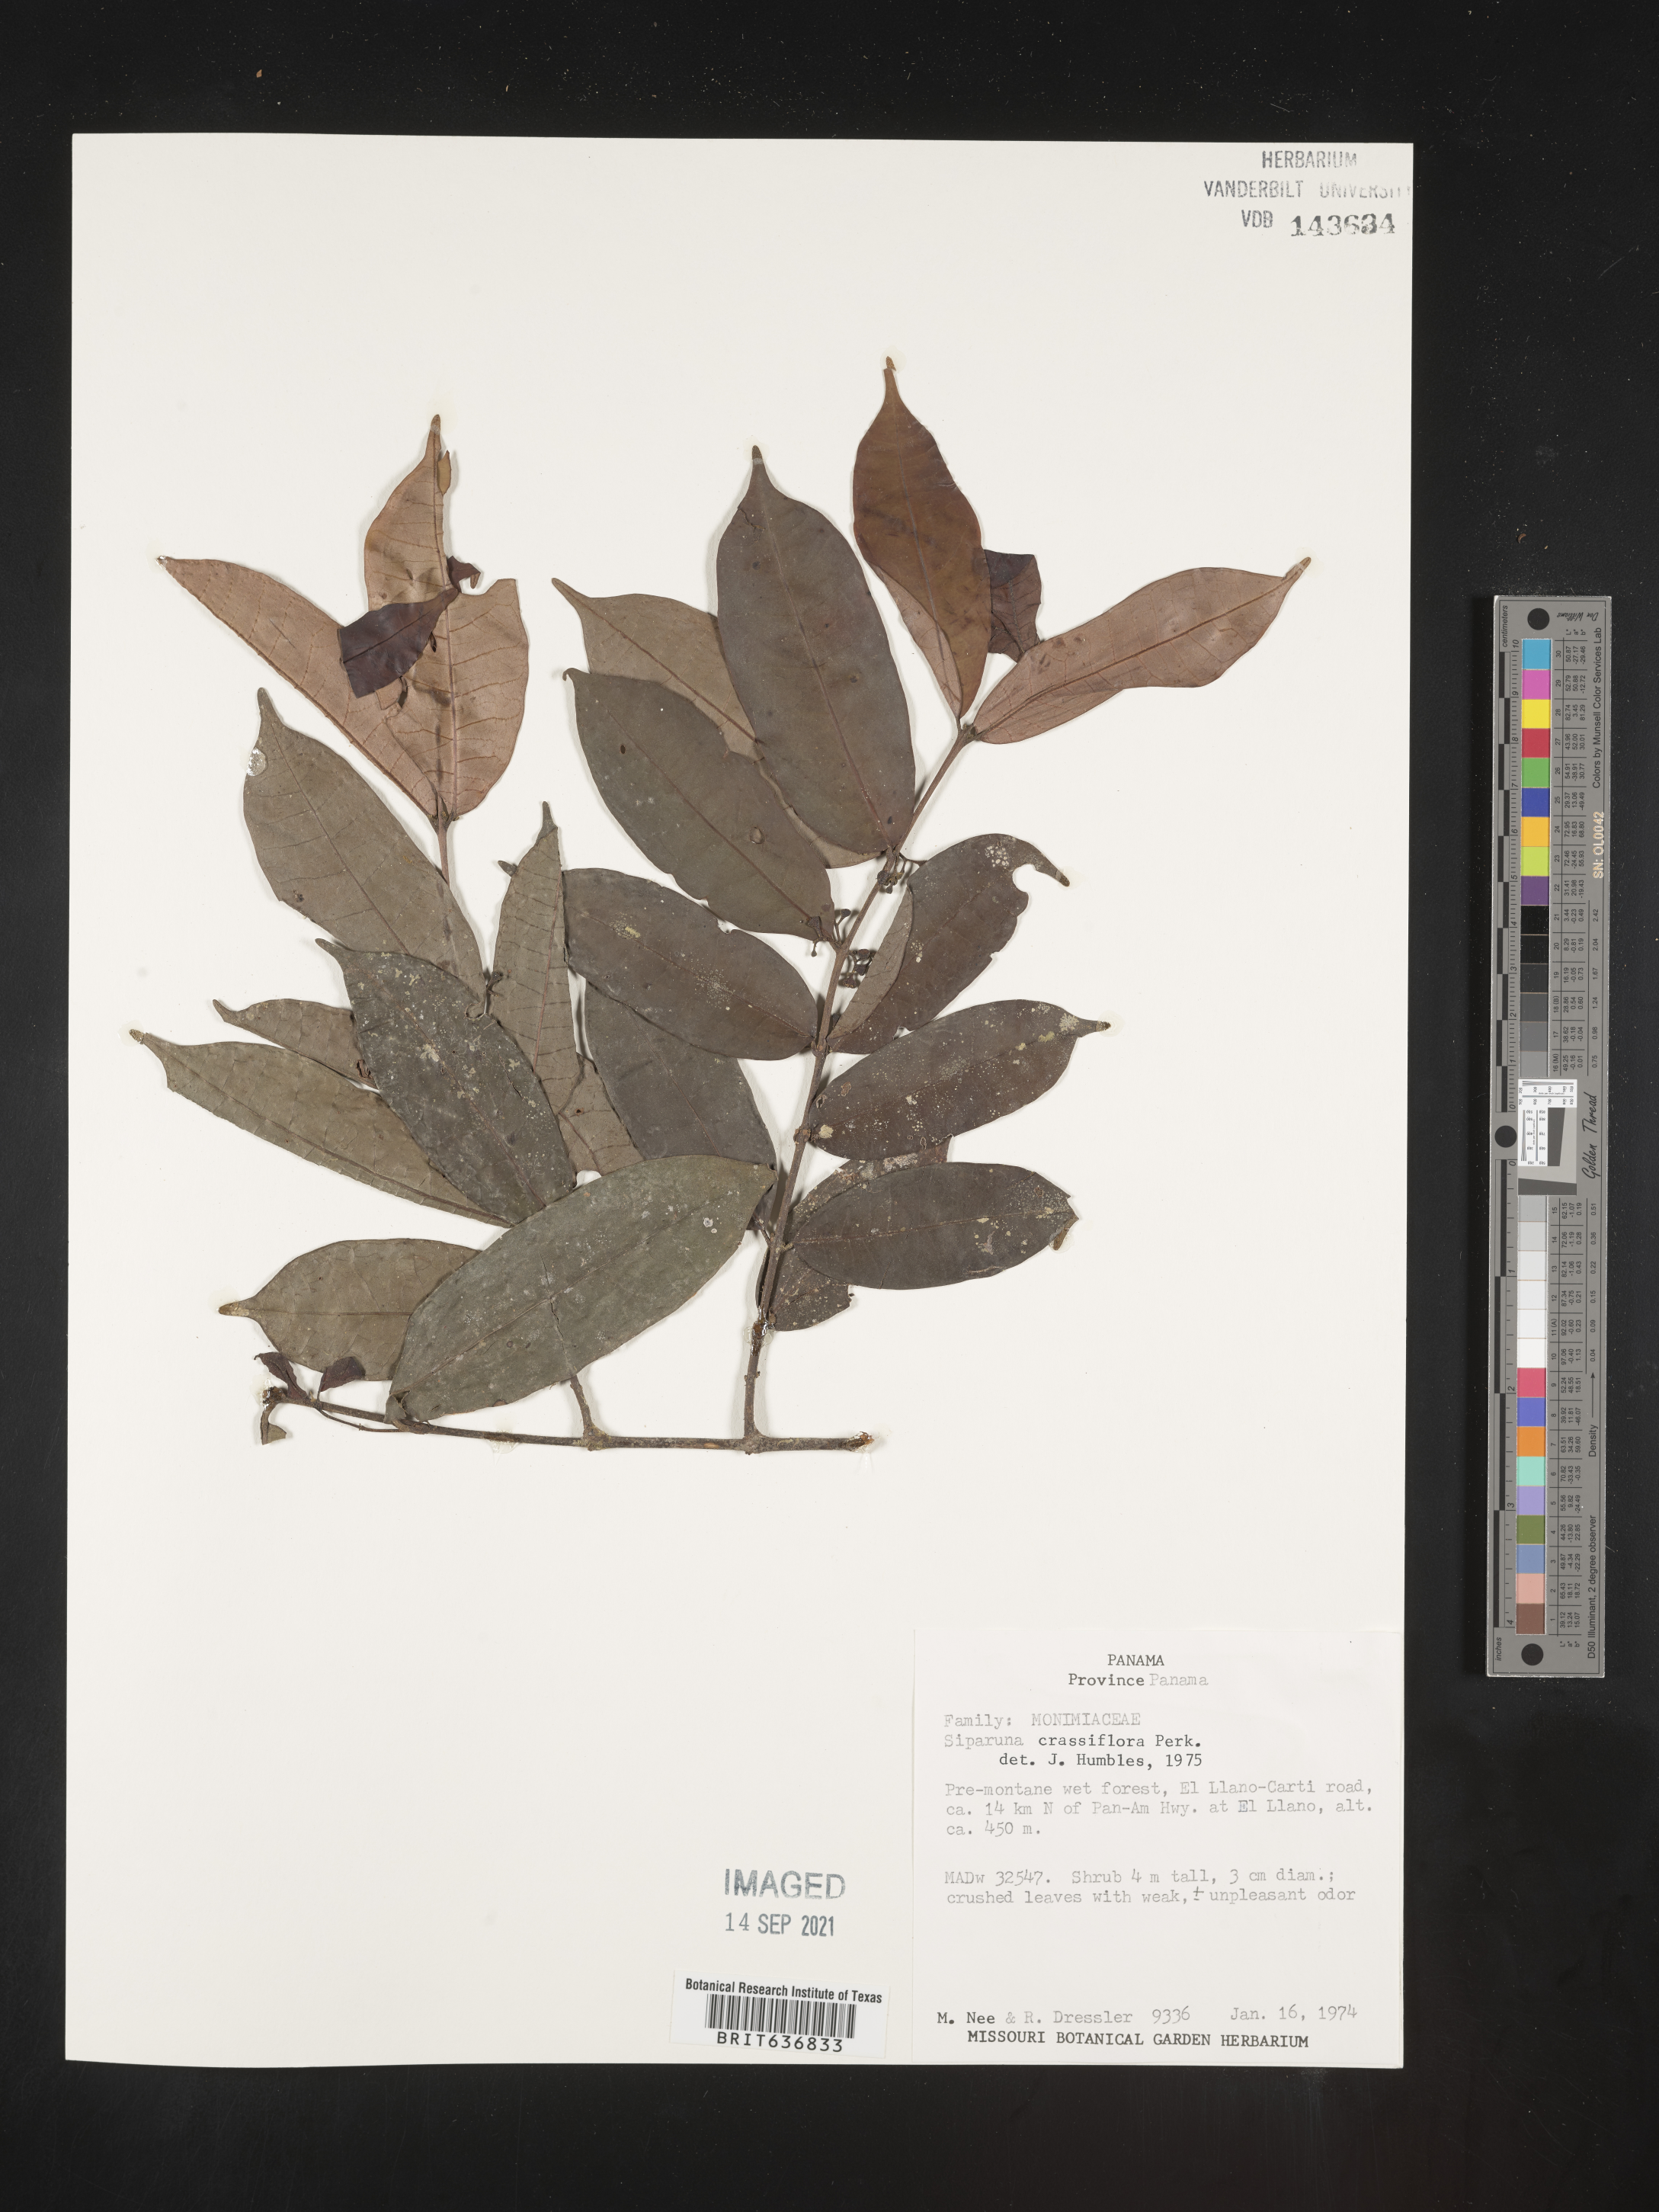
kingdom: Plantae
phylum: Tracheophyta
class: Magnoliopsida
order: Laurales
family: Siparunaceae
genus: Siparuna
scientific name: Siparuna
